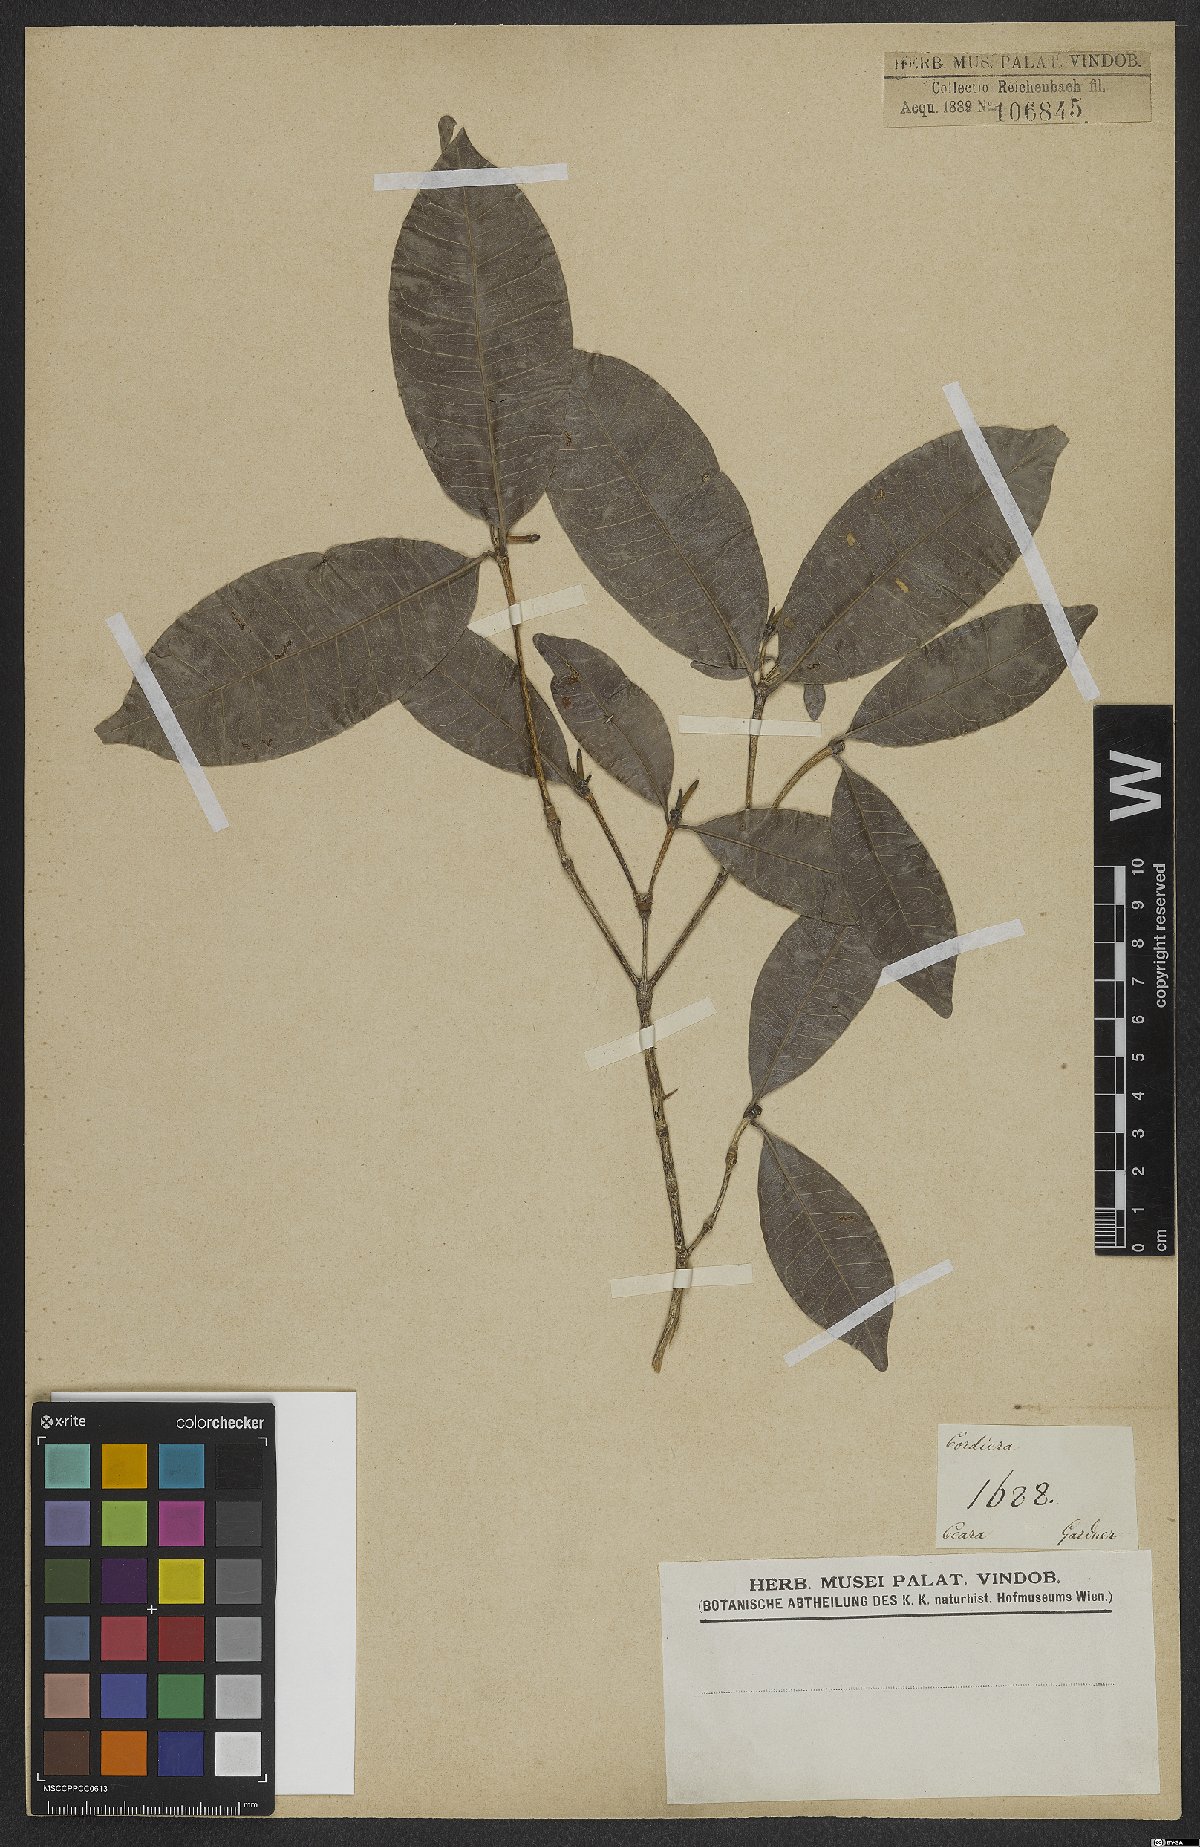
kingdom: Plantae
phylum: Tracheophyta
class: Magnoliopsida
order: Gentianales
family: Rubiaceae
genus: Cordiera
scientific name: Cordiera
